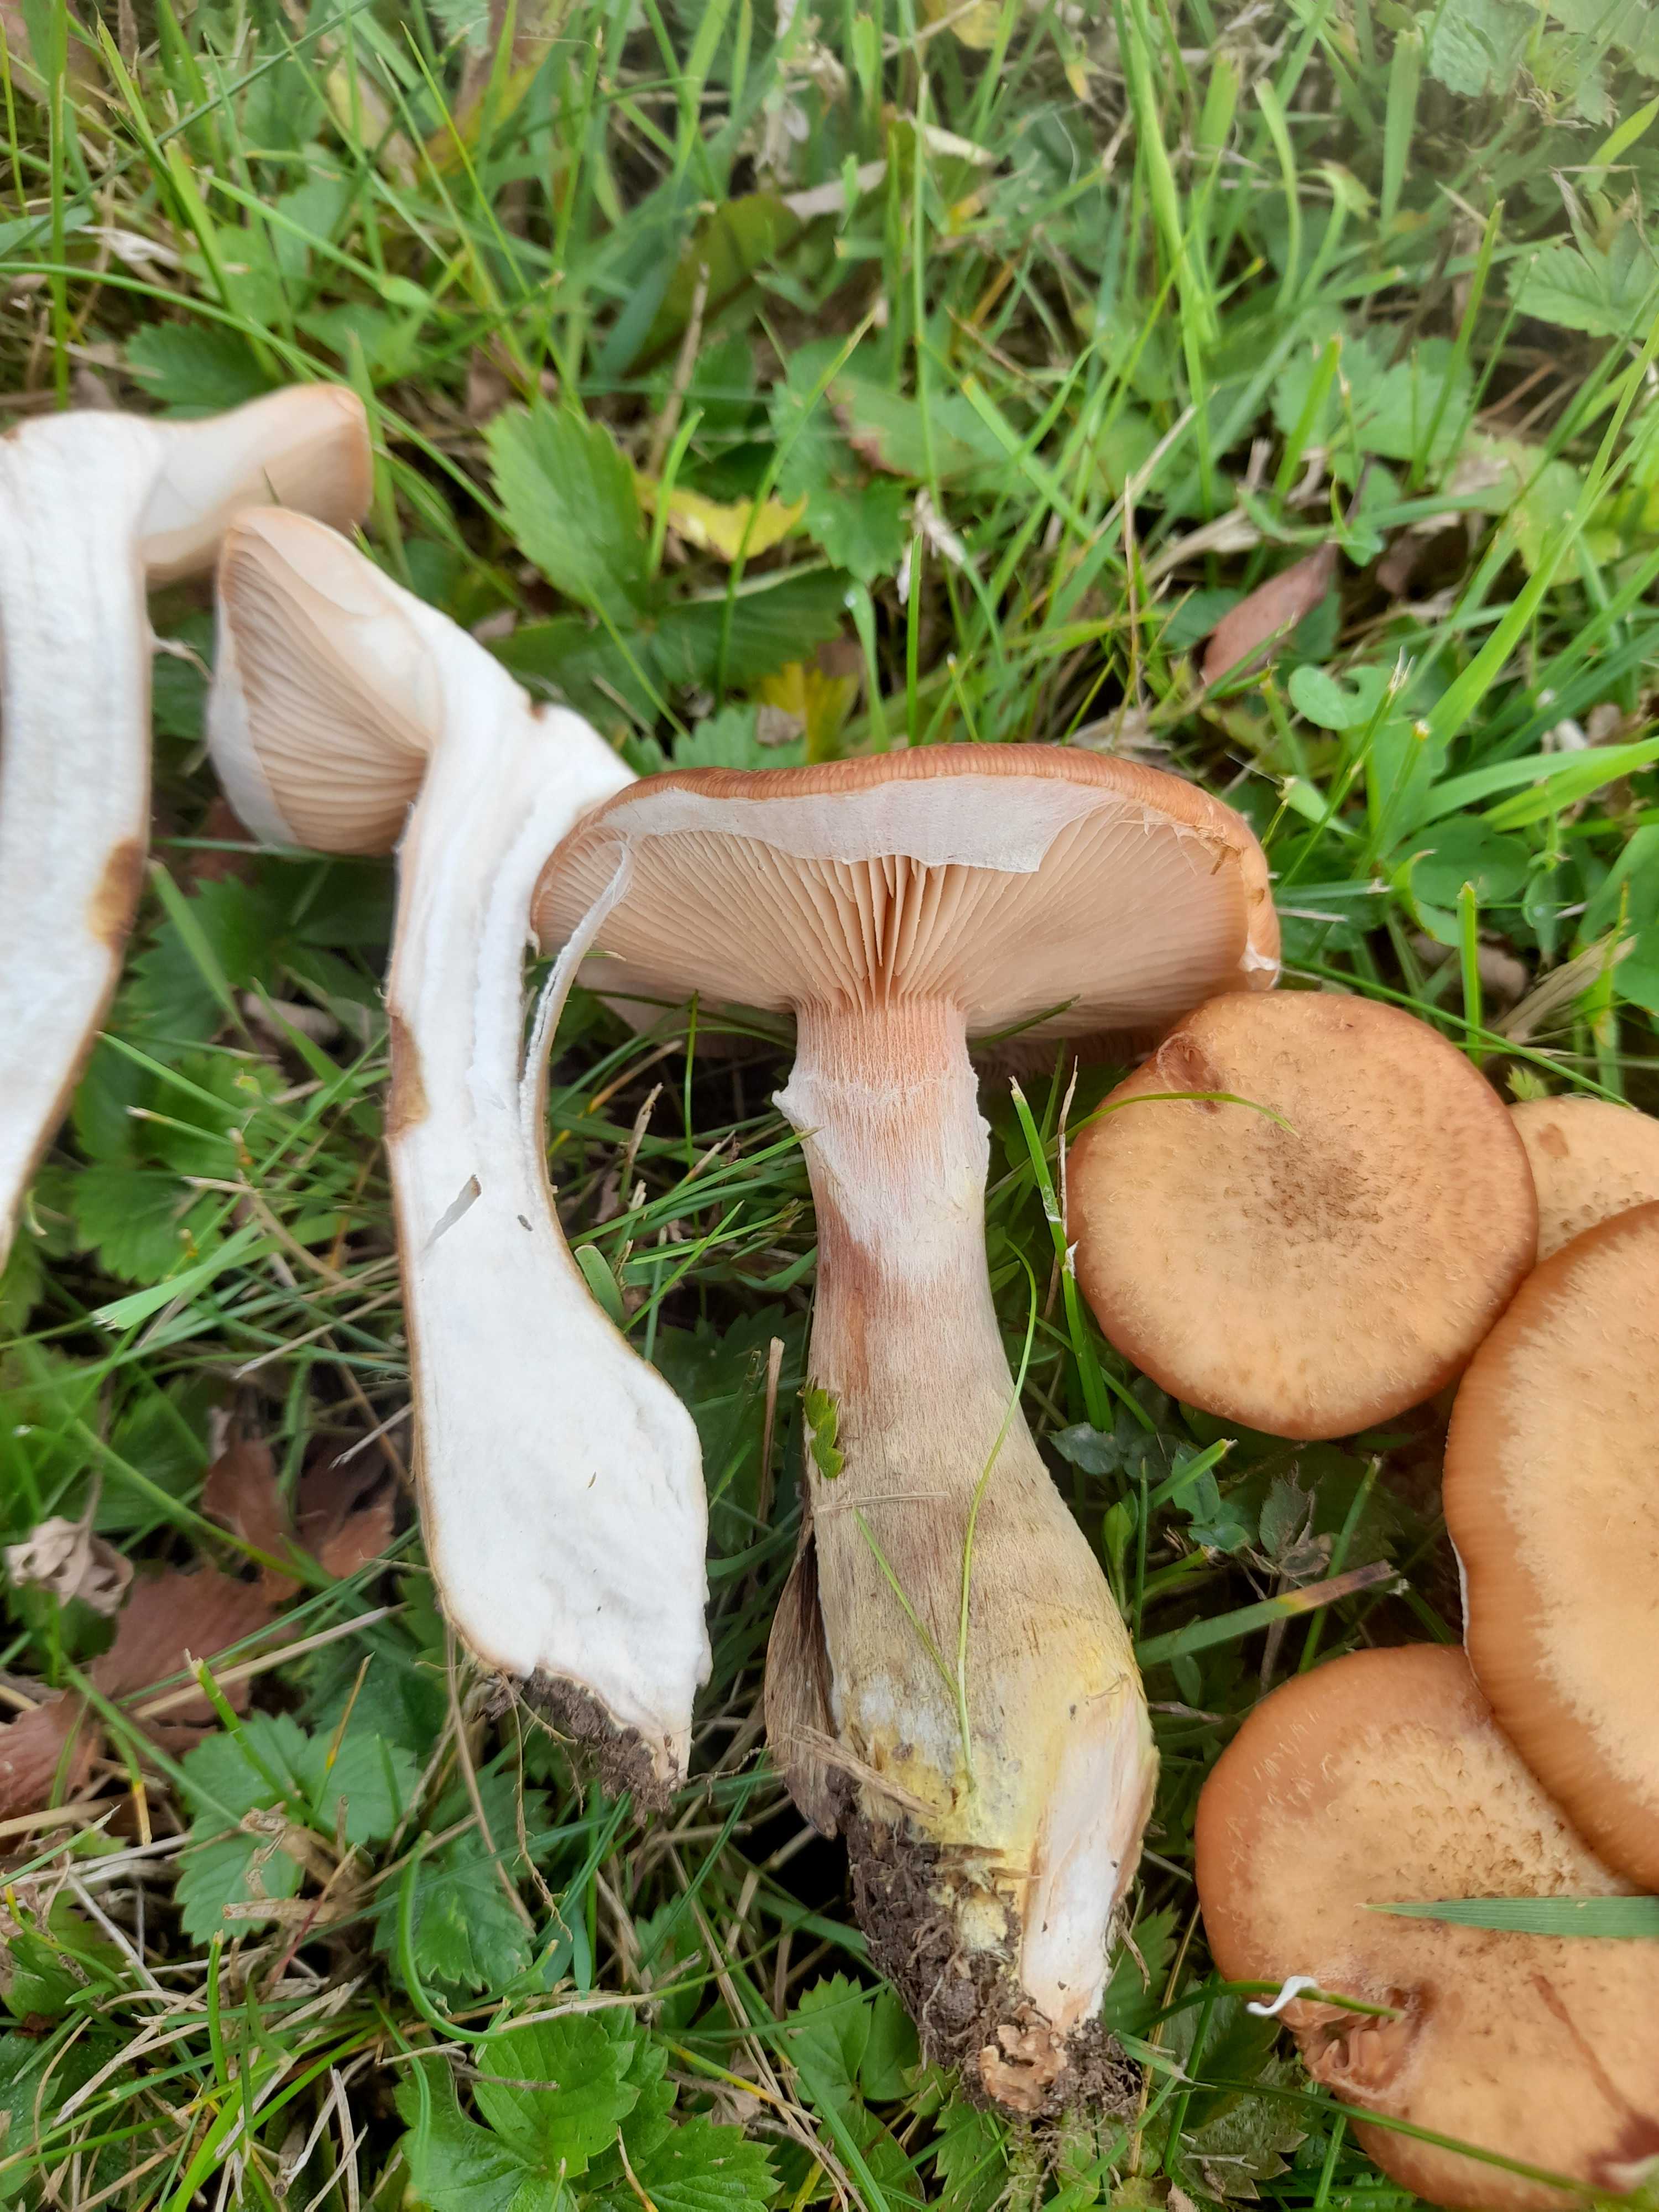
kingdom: Fungi
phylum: Basidiomycota
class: Agaricomycetes
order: Agaricales
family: Physalacriaceae
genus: Armillaria
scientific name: Armillaria lutea
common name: køllestokket honningsvamp
